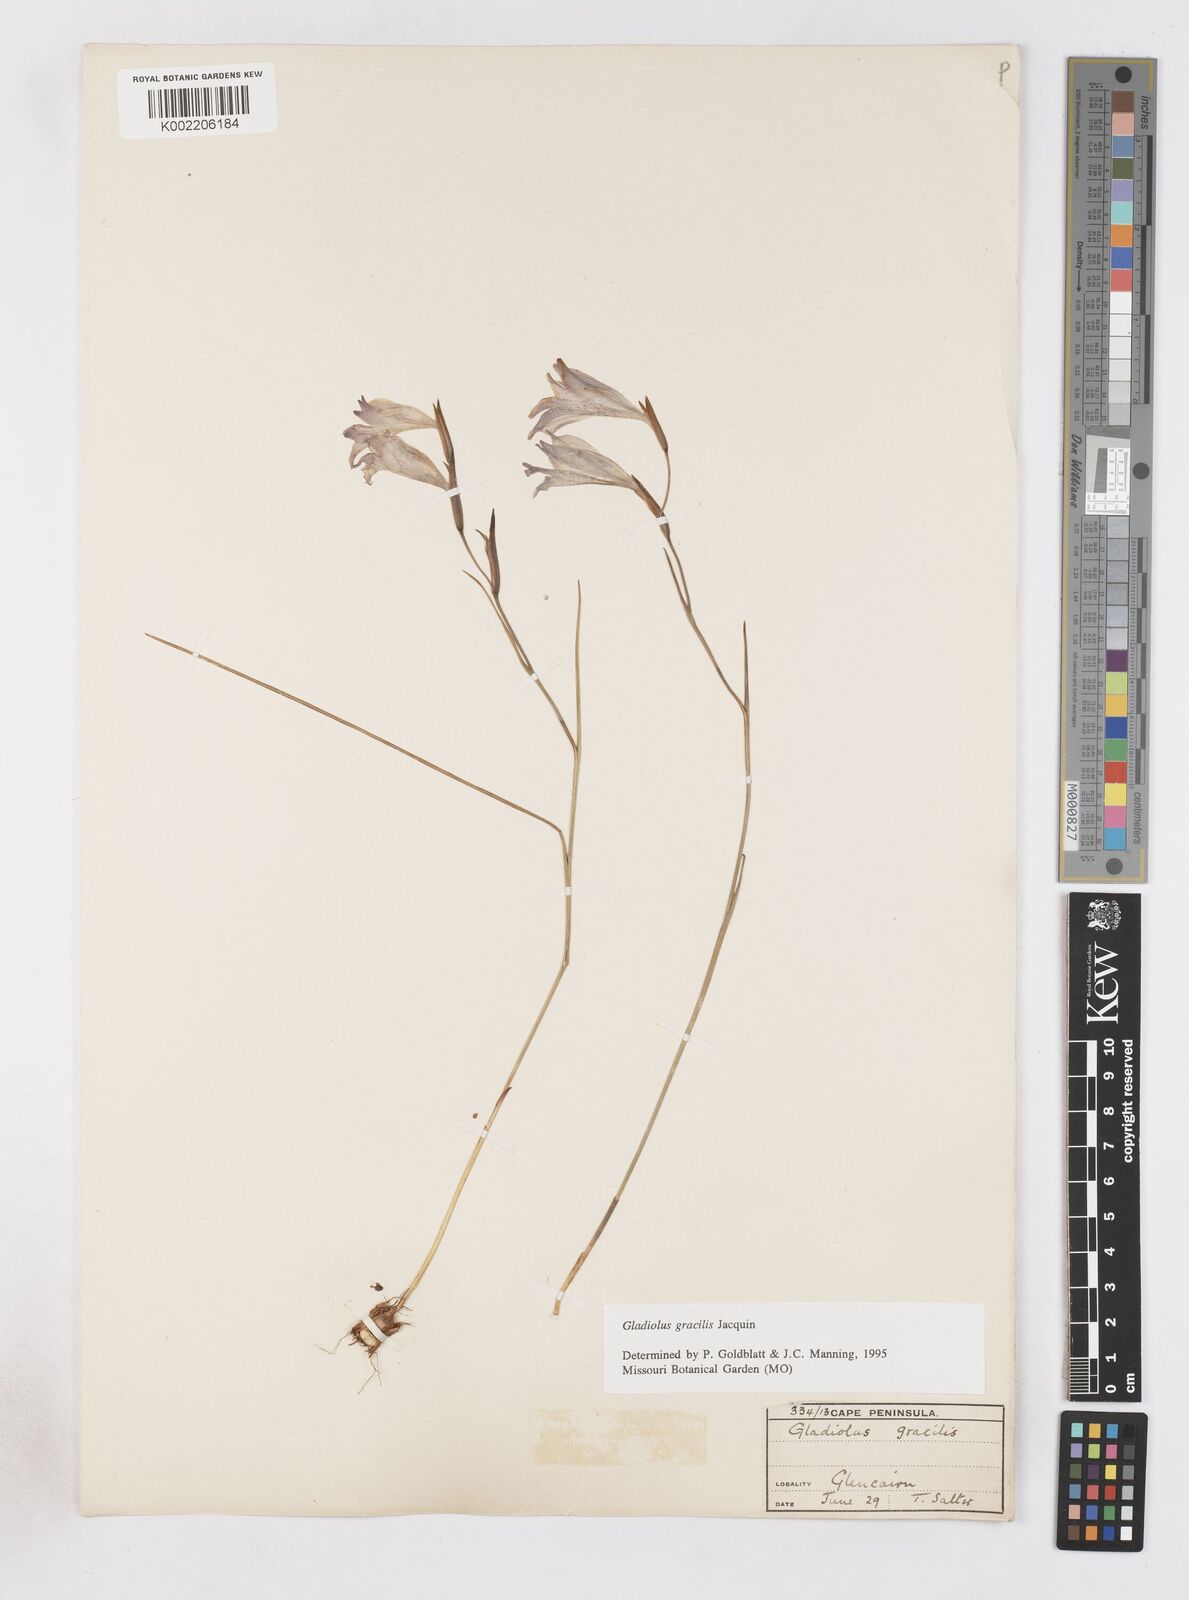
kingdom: Plantae
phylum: Tracheophyta
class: Liliopsida
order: Asparagales
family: Iridaceae
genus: Gladiolus
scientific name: Gladiolus gracilis
